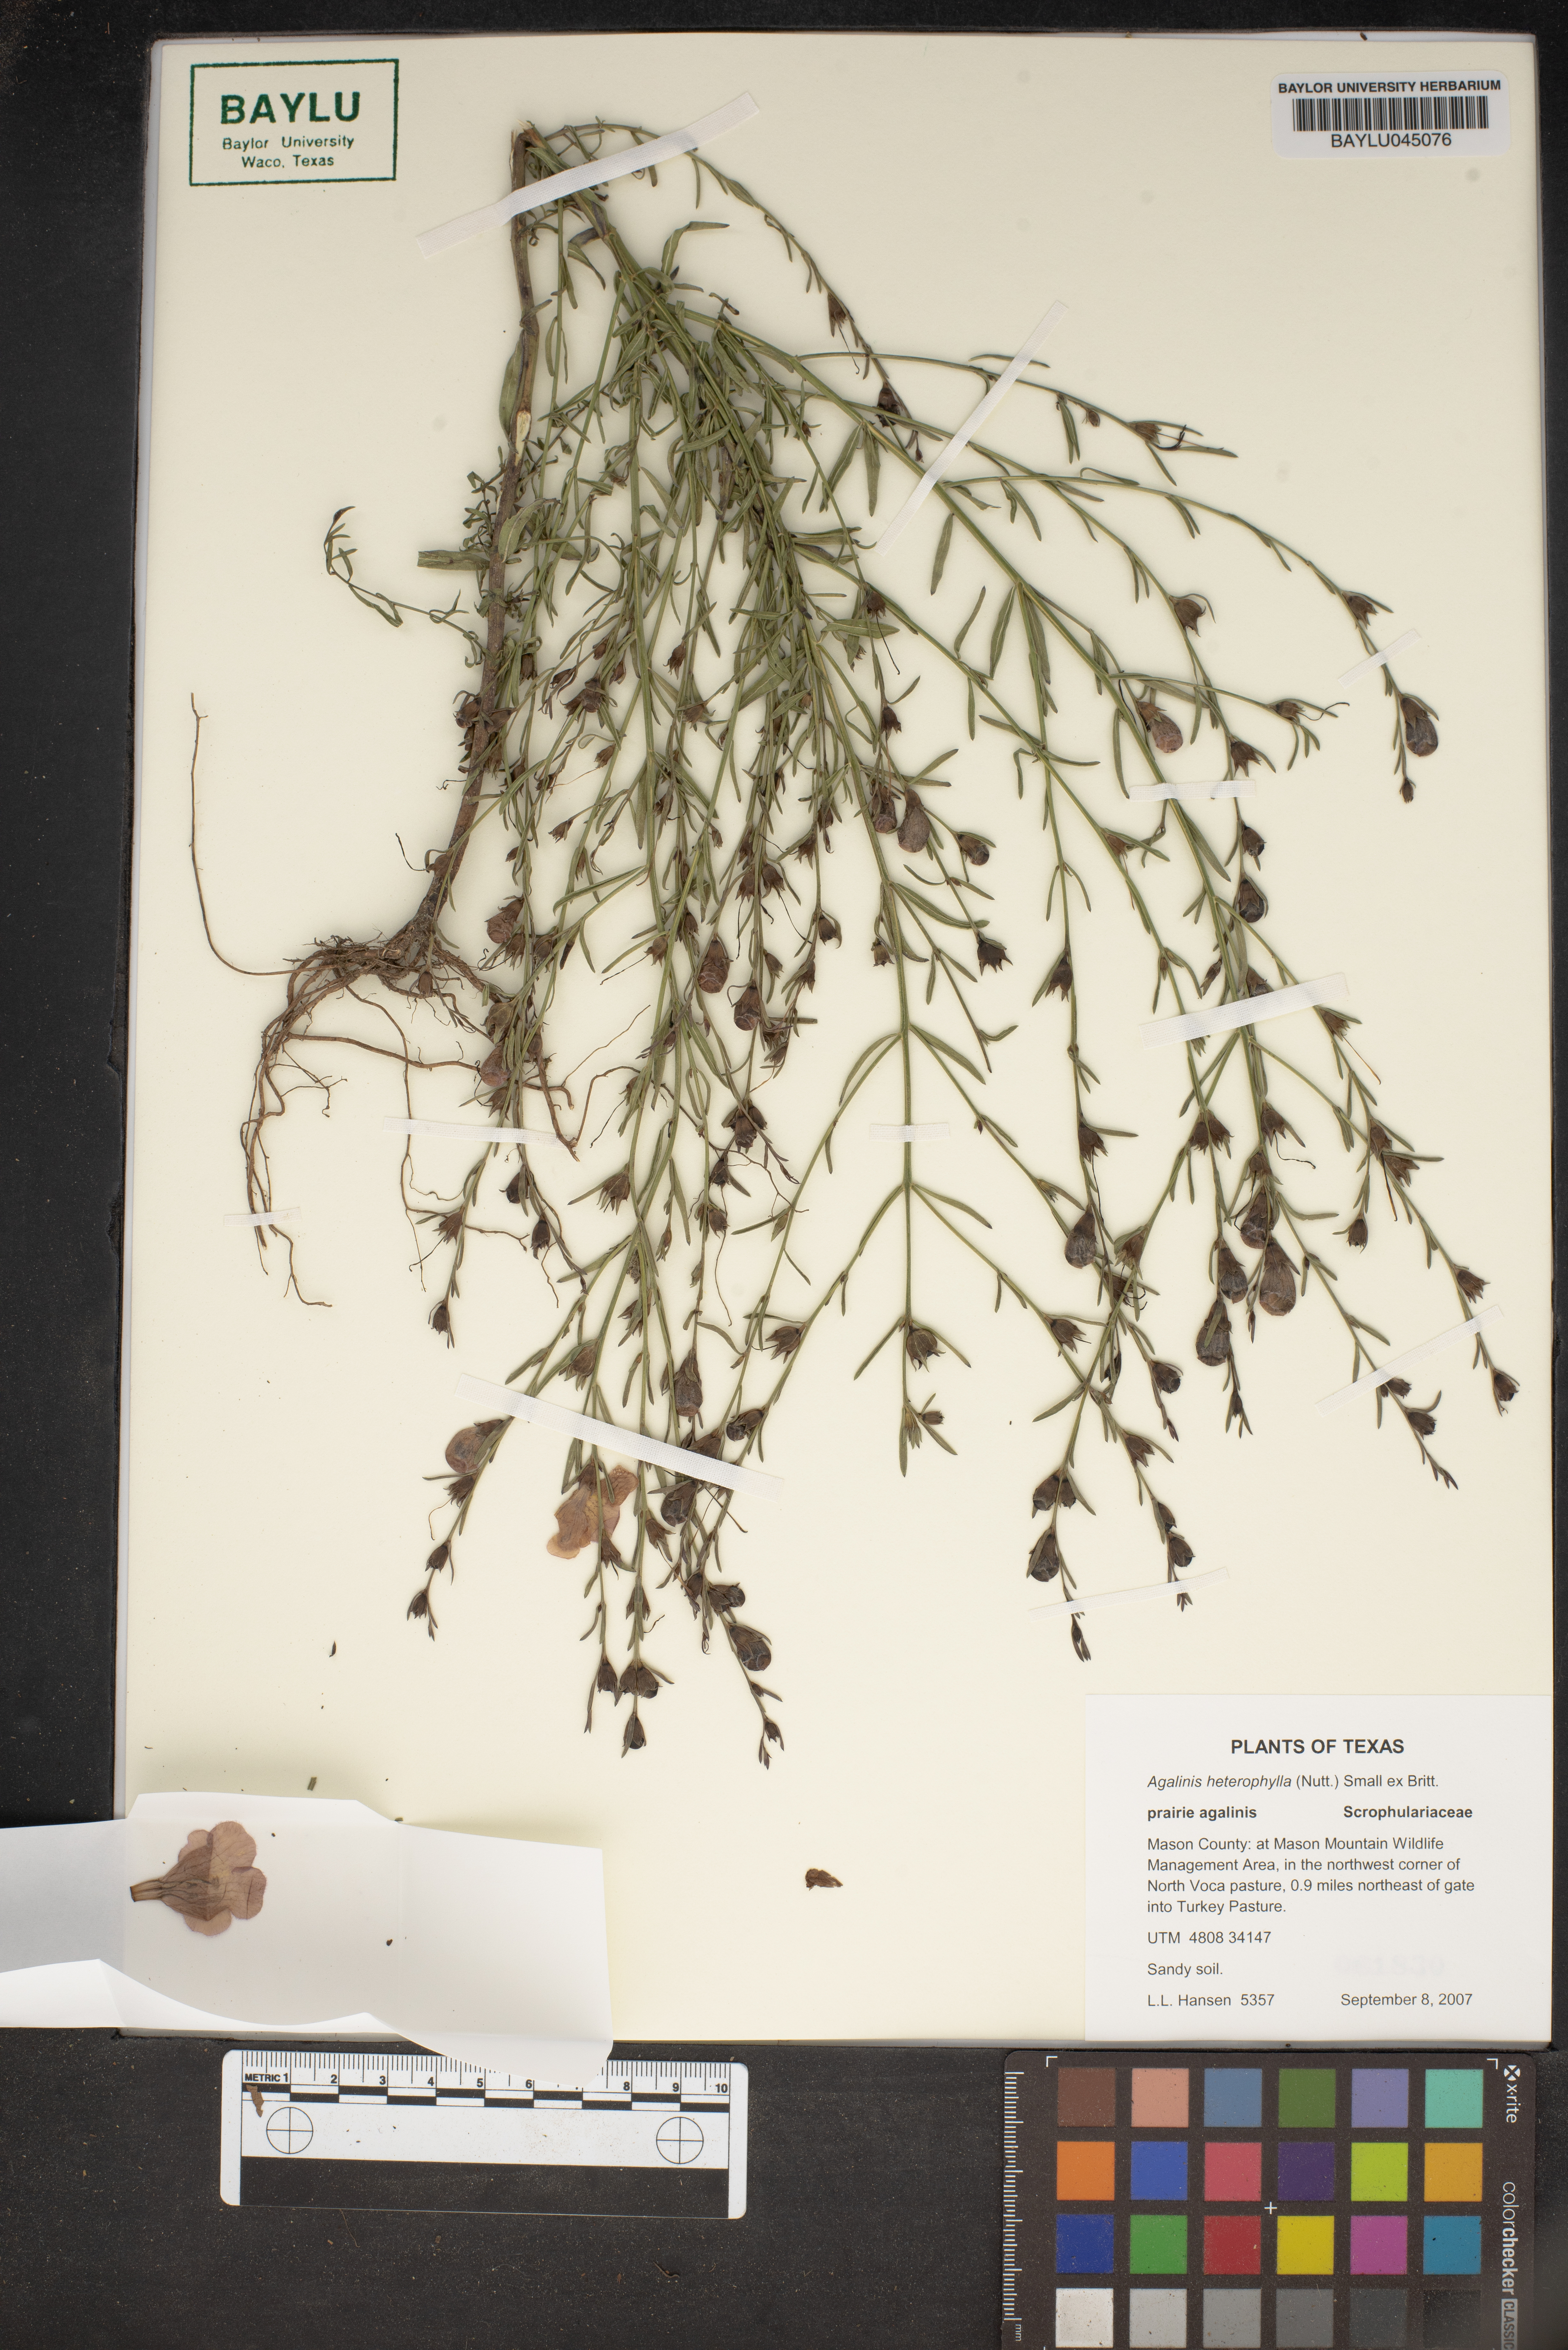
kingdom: Plantae
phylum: Tracheophyta
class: Magnoliopsida
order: Lamiales
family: Orobanchaceae
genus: Agalinis
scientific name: Agalinis heterophylla
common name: Prairie agalinis
